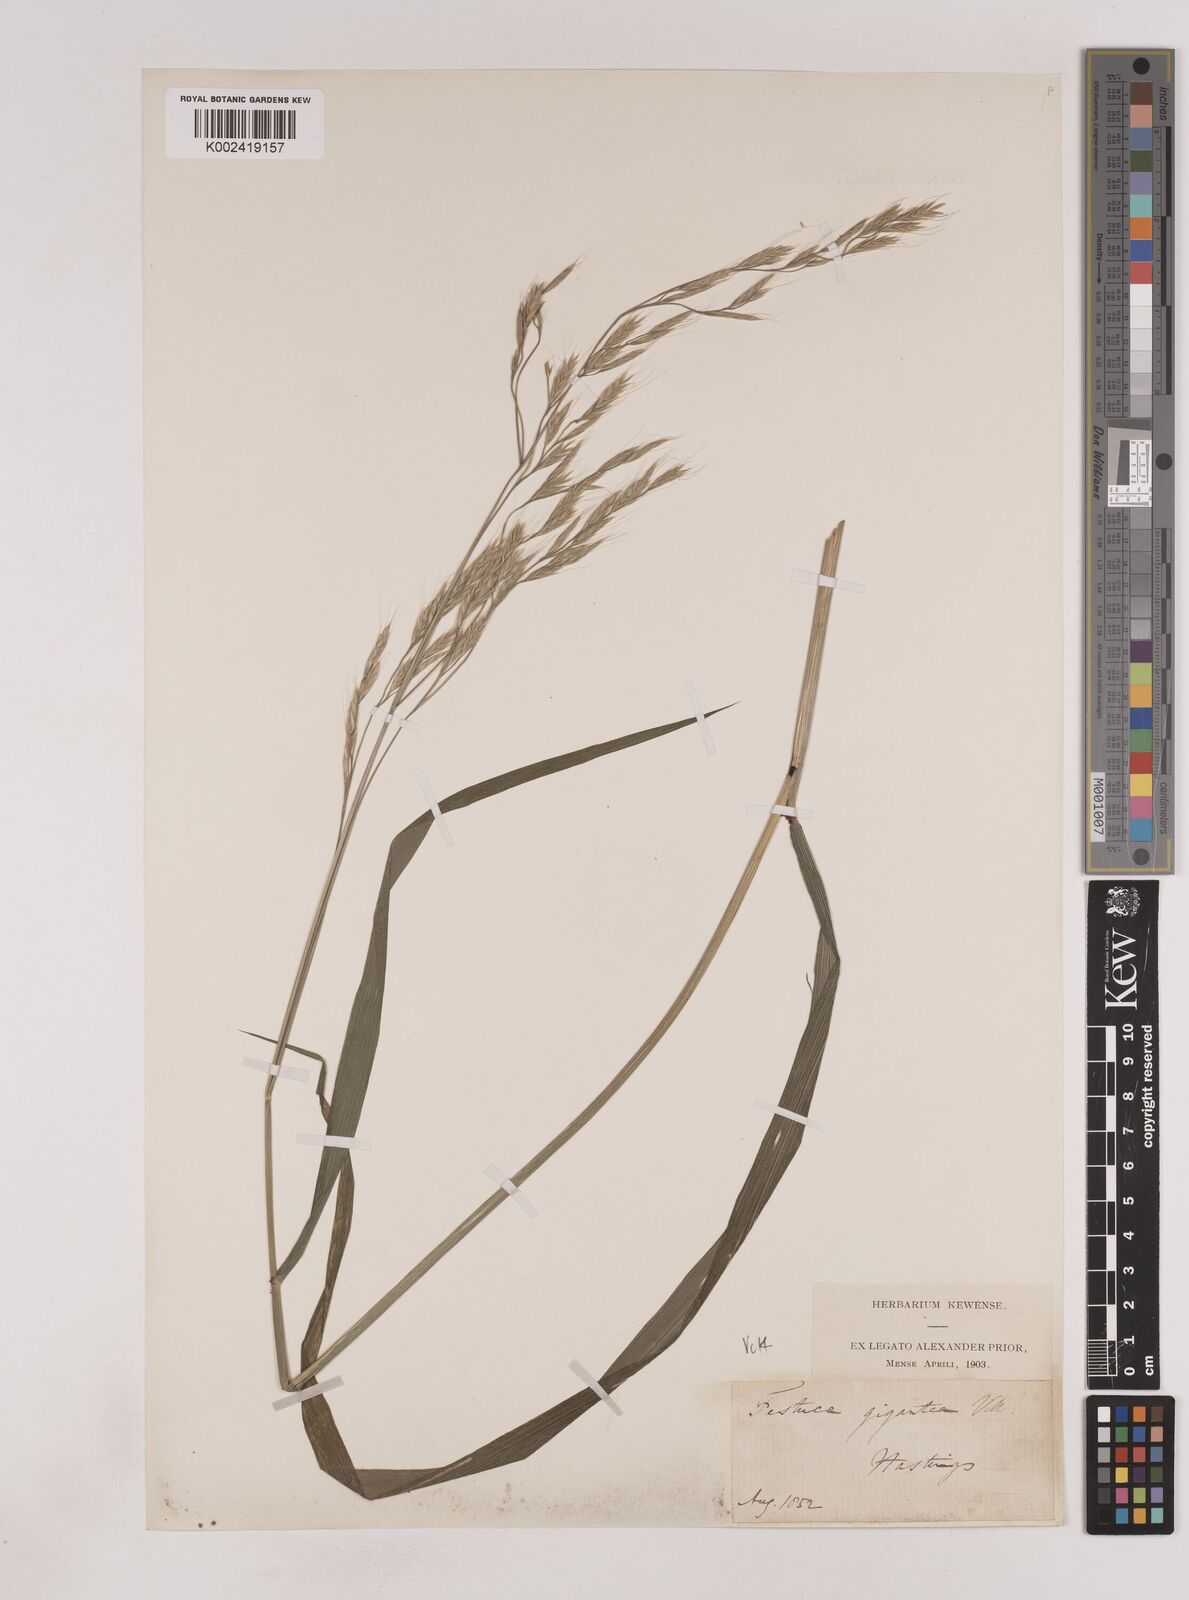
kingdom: Plantae
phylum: Tracheophyta
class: Liliopsida
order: Poales
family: Poaceae
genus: Lolium
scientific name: Lolium giganteum
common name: Giant fescue
